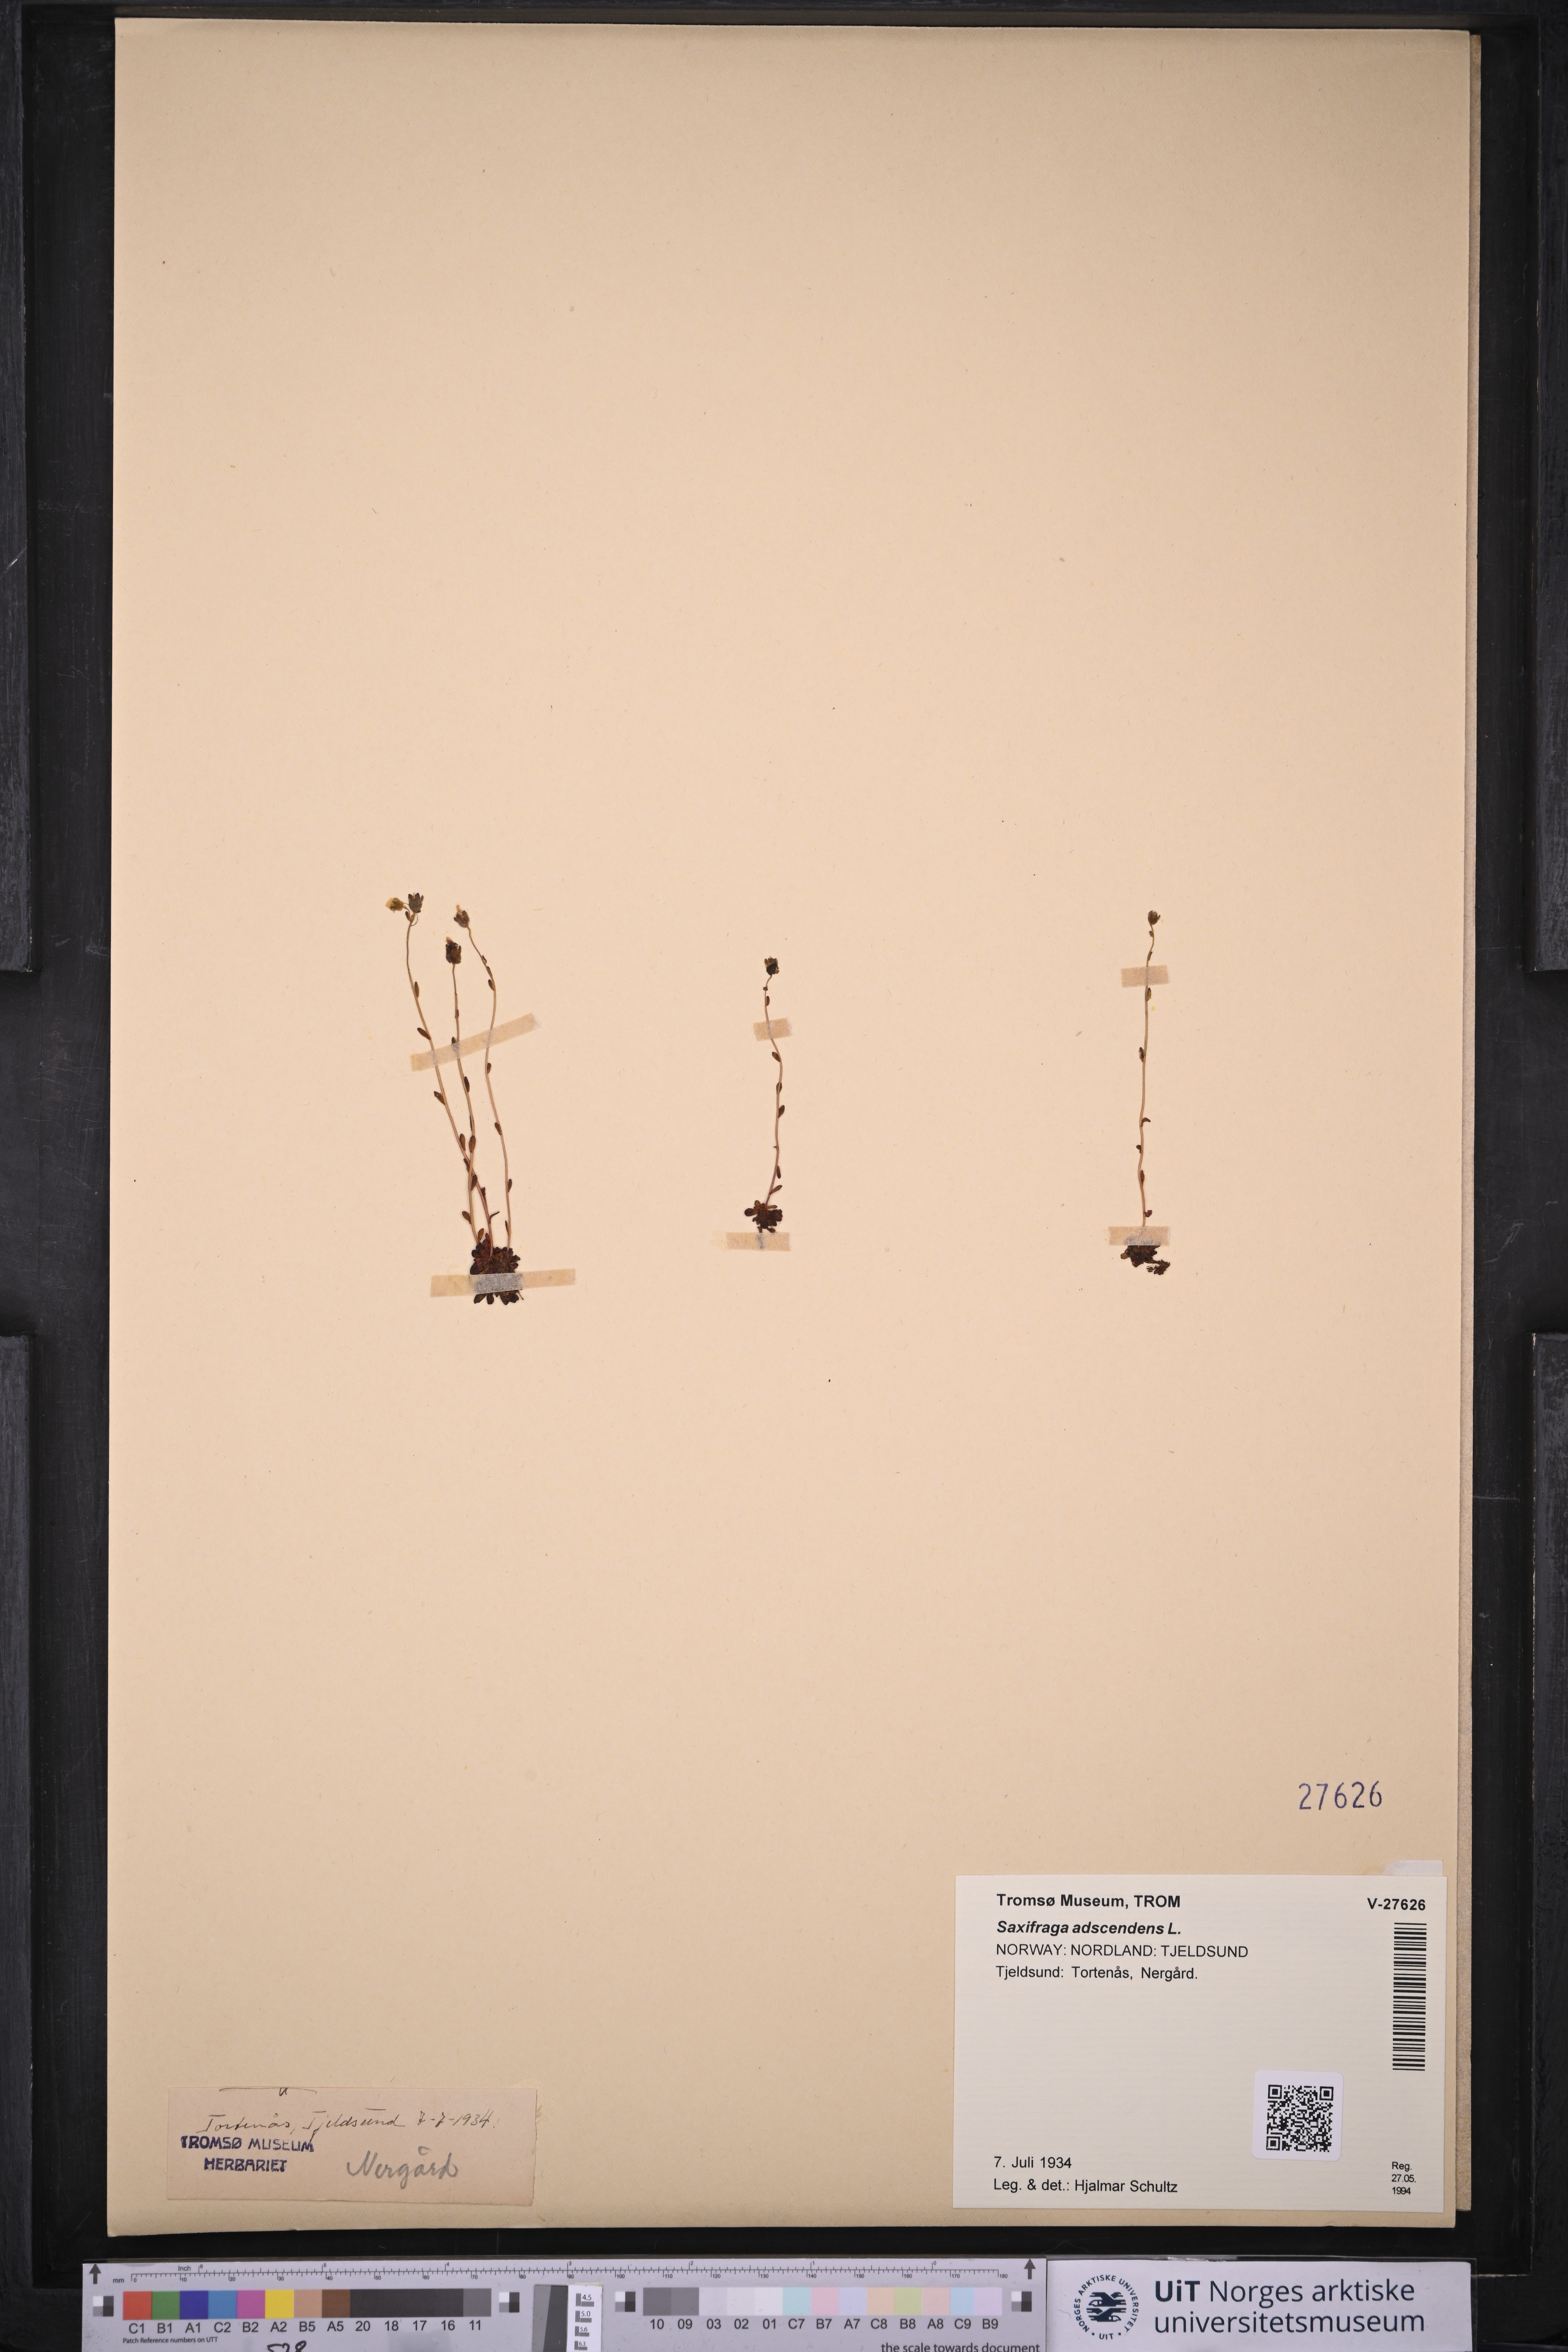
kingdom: Plantae
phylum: Tracheophyta
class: Magnoliopsida
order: Saxifragales
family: Saxifragaceae
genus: Saxifraga
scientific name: Saxifraga adscendens
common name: Ascending saxifrage
